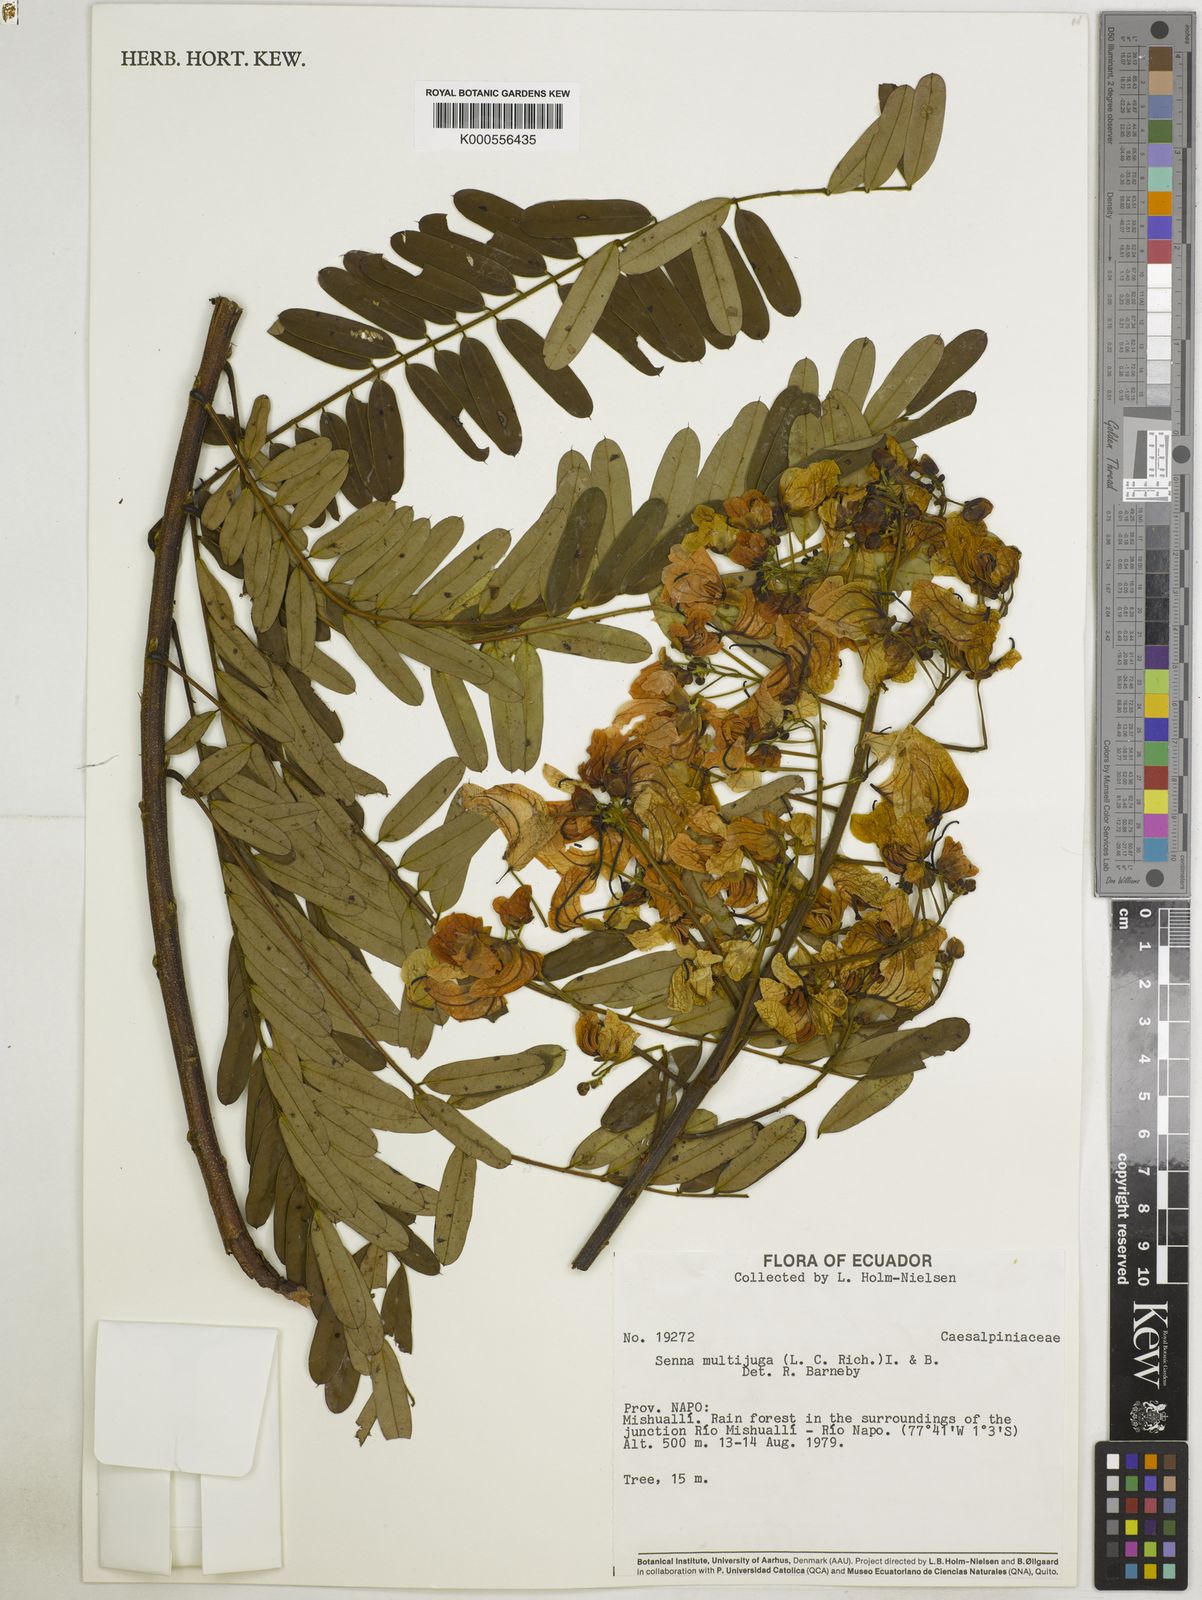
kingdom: Plantae
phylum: Tracheophyta
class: Magnoliopsida
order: Fabales
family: Fabaceae
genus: Senna
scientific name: Senna multijuga
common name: False sicklepod
